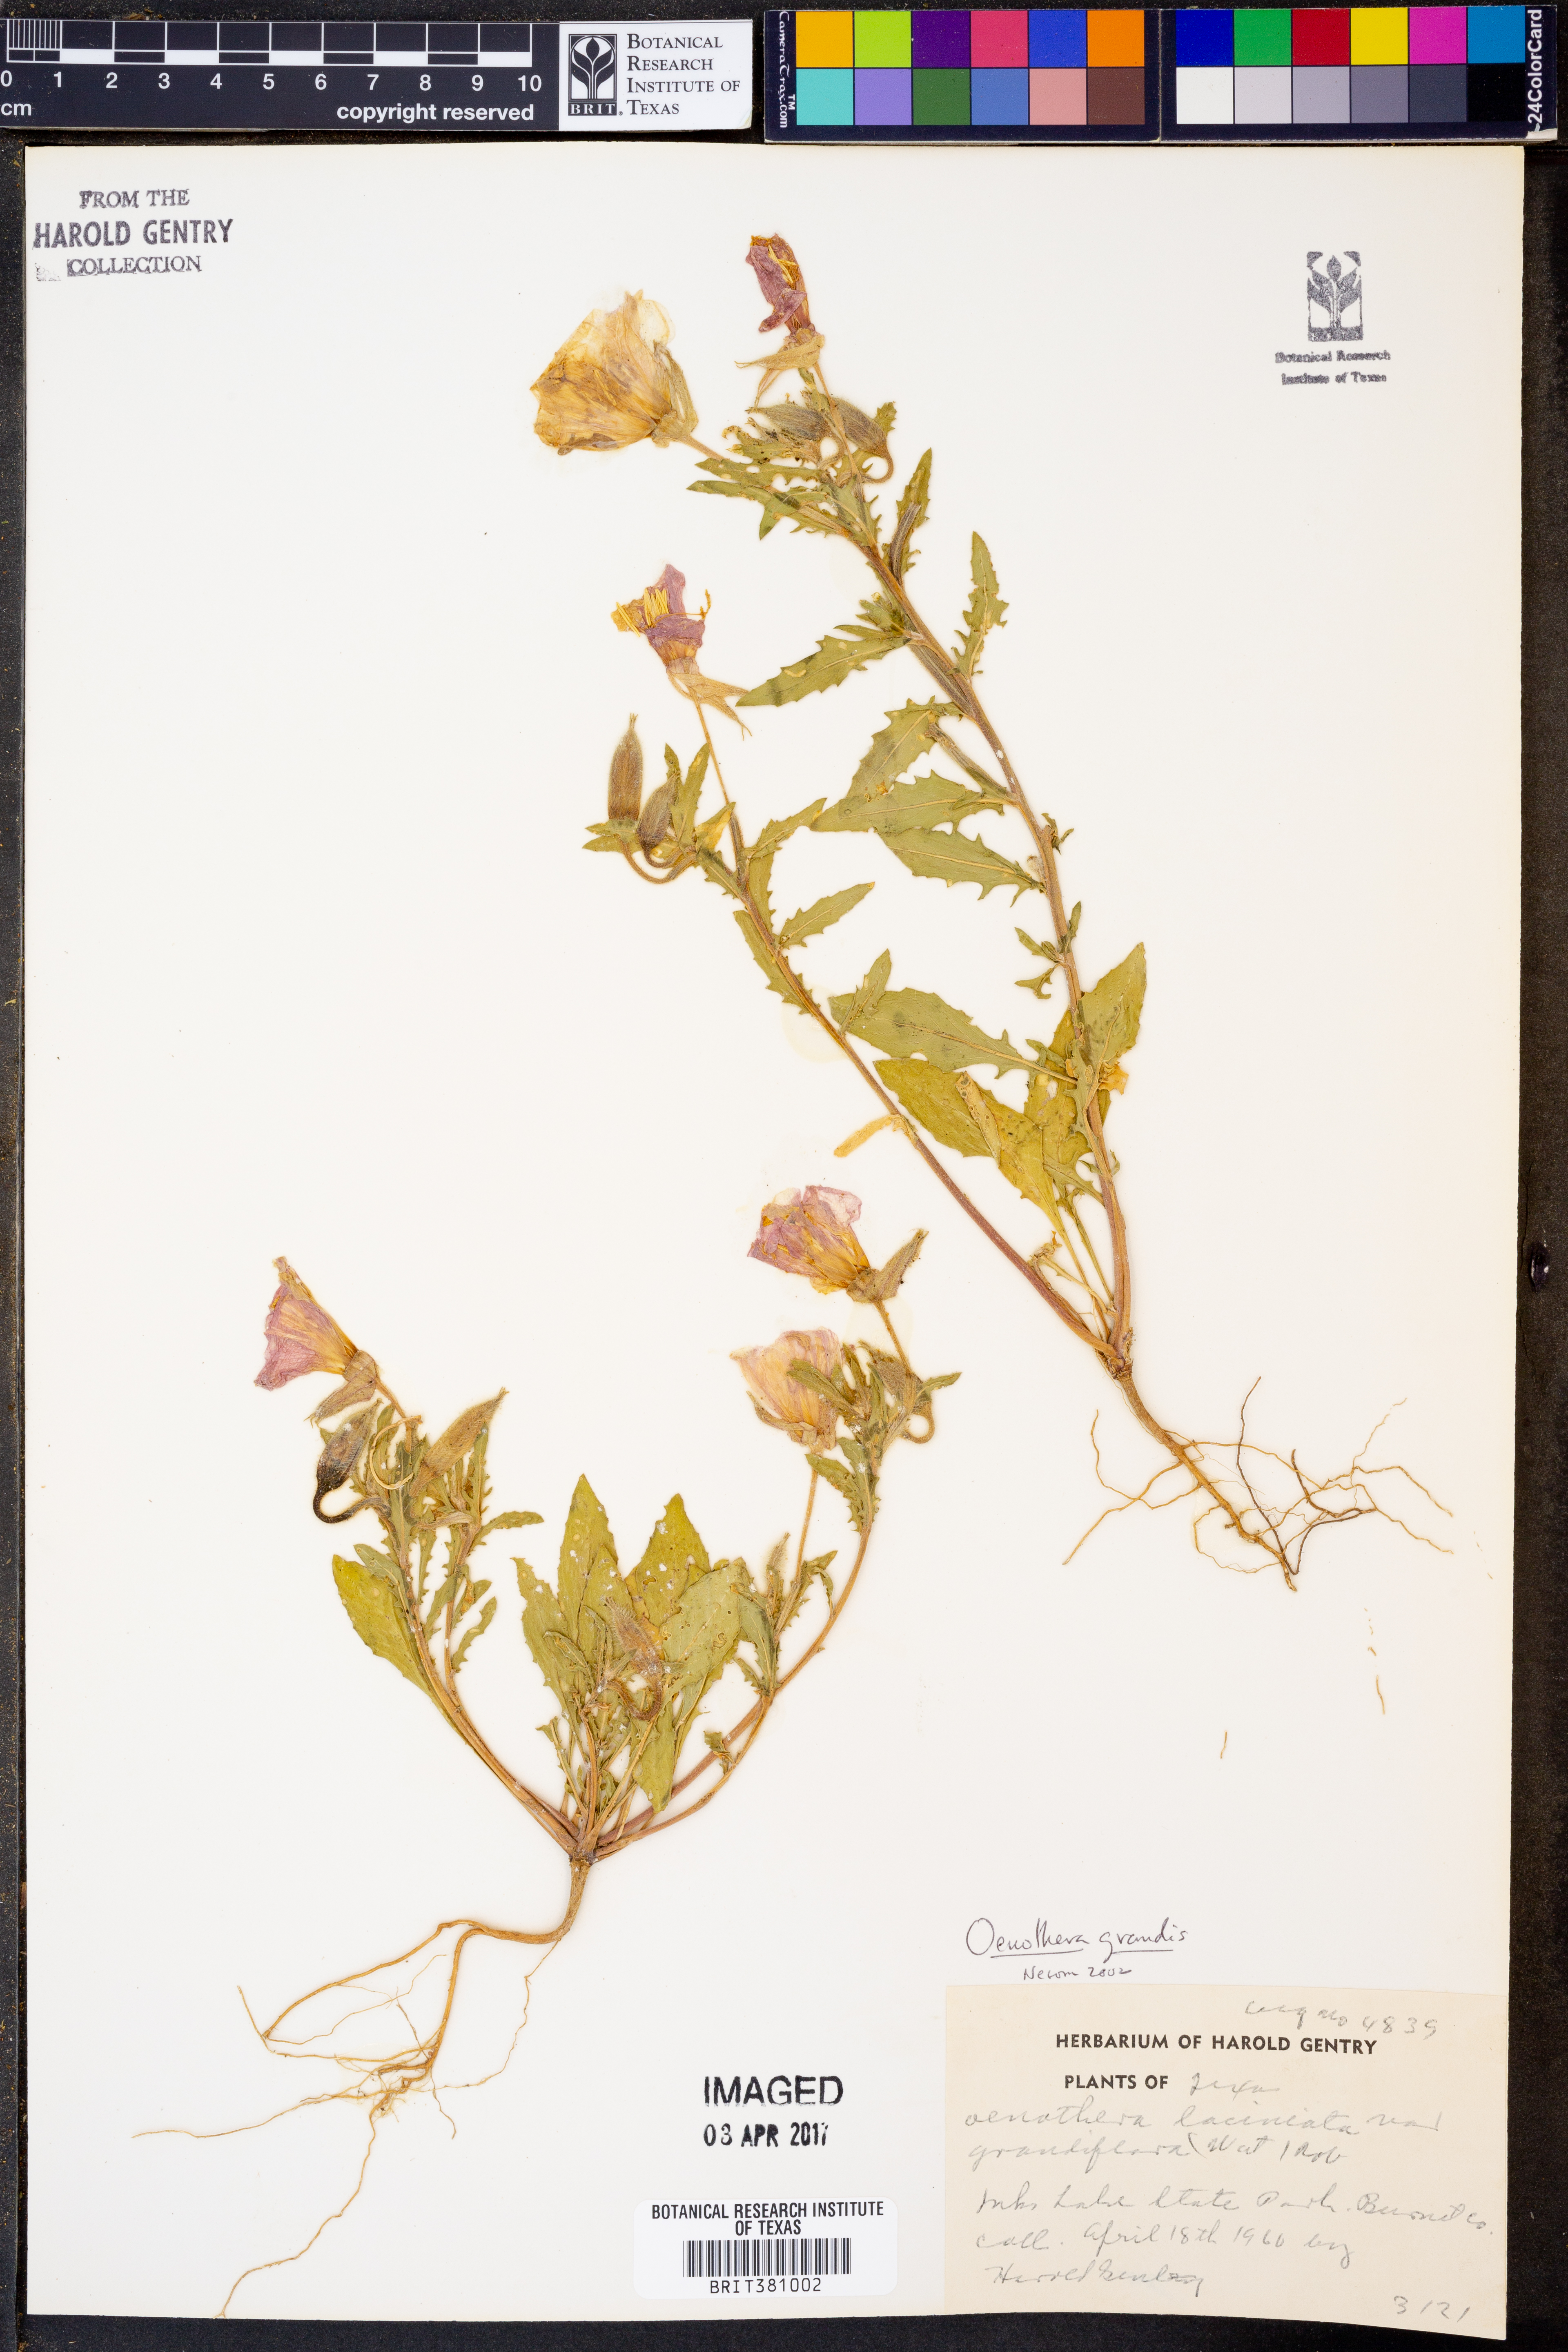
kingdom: Plantae
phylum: Tracheophyta
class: Magnoliopsida
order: Myrtales
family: Onagraceae
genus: Oenothera
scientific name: Oenothera grandis
